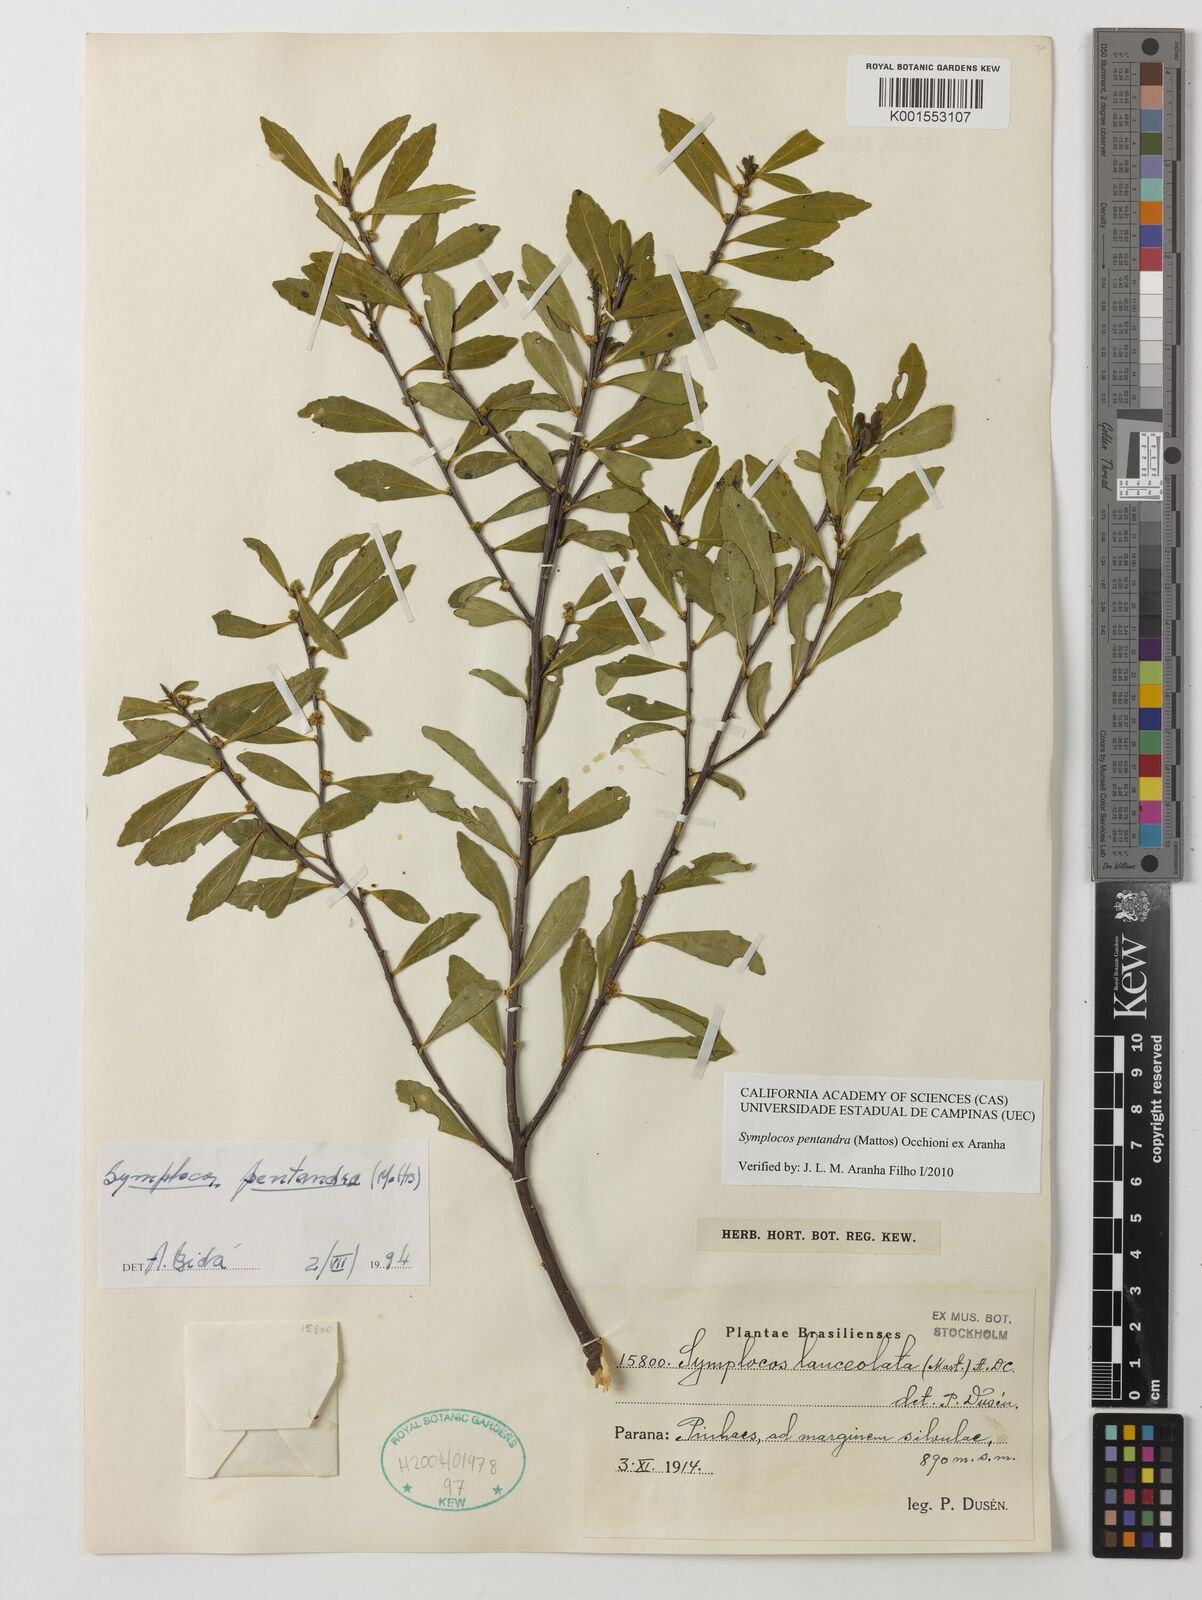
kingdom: Plantae
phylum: Tracheophyta
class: Magnoliopsida
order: Ericales
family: Symplocaceae
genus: Symplocos
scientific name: Symplocos pentandra
